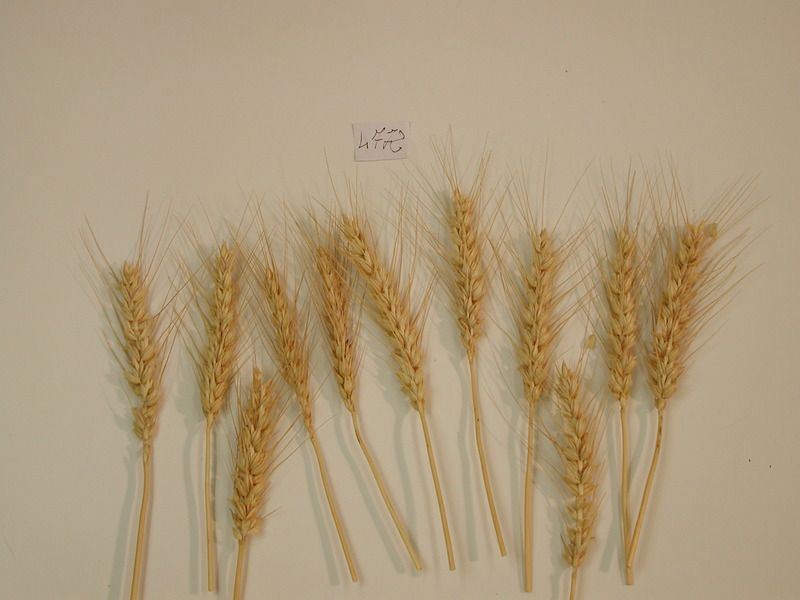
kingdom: Plantae
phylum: Tracheophyta
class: Liliopsida
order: Poales
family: Poaceae
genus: Triticum
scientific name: Triticum aestivum
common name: Wheat
